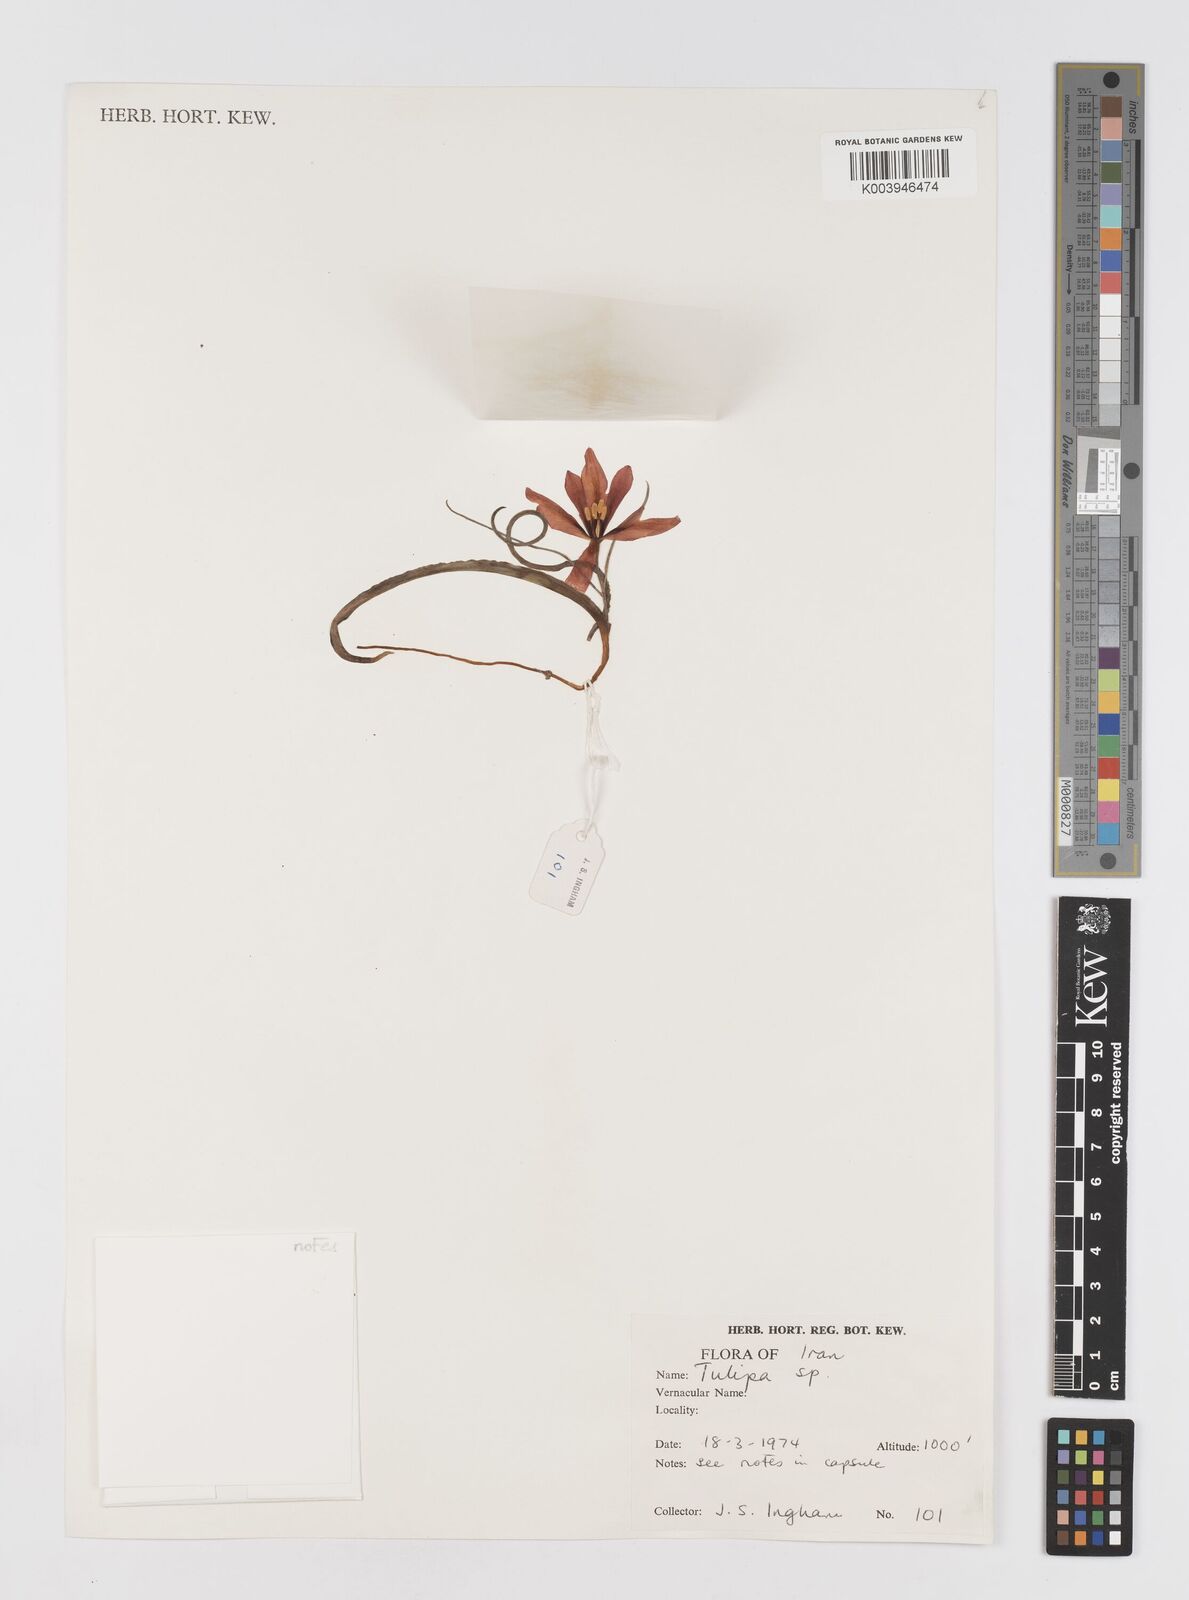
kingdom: Plantae
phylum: Tracheophyta
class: Liliopsida
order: Liliales
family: Liliaceae
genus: Tulipa
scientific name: Tulipa
